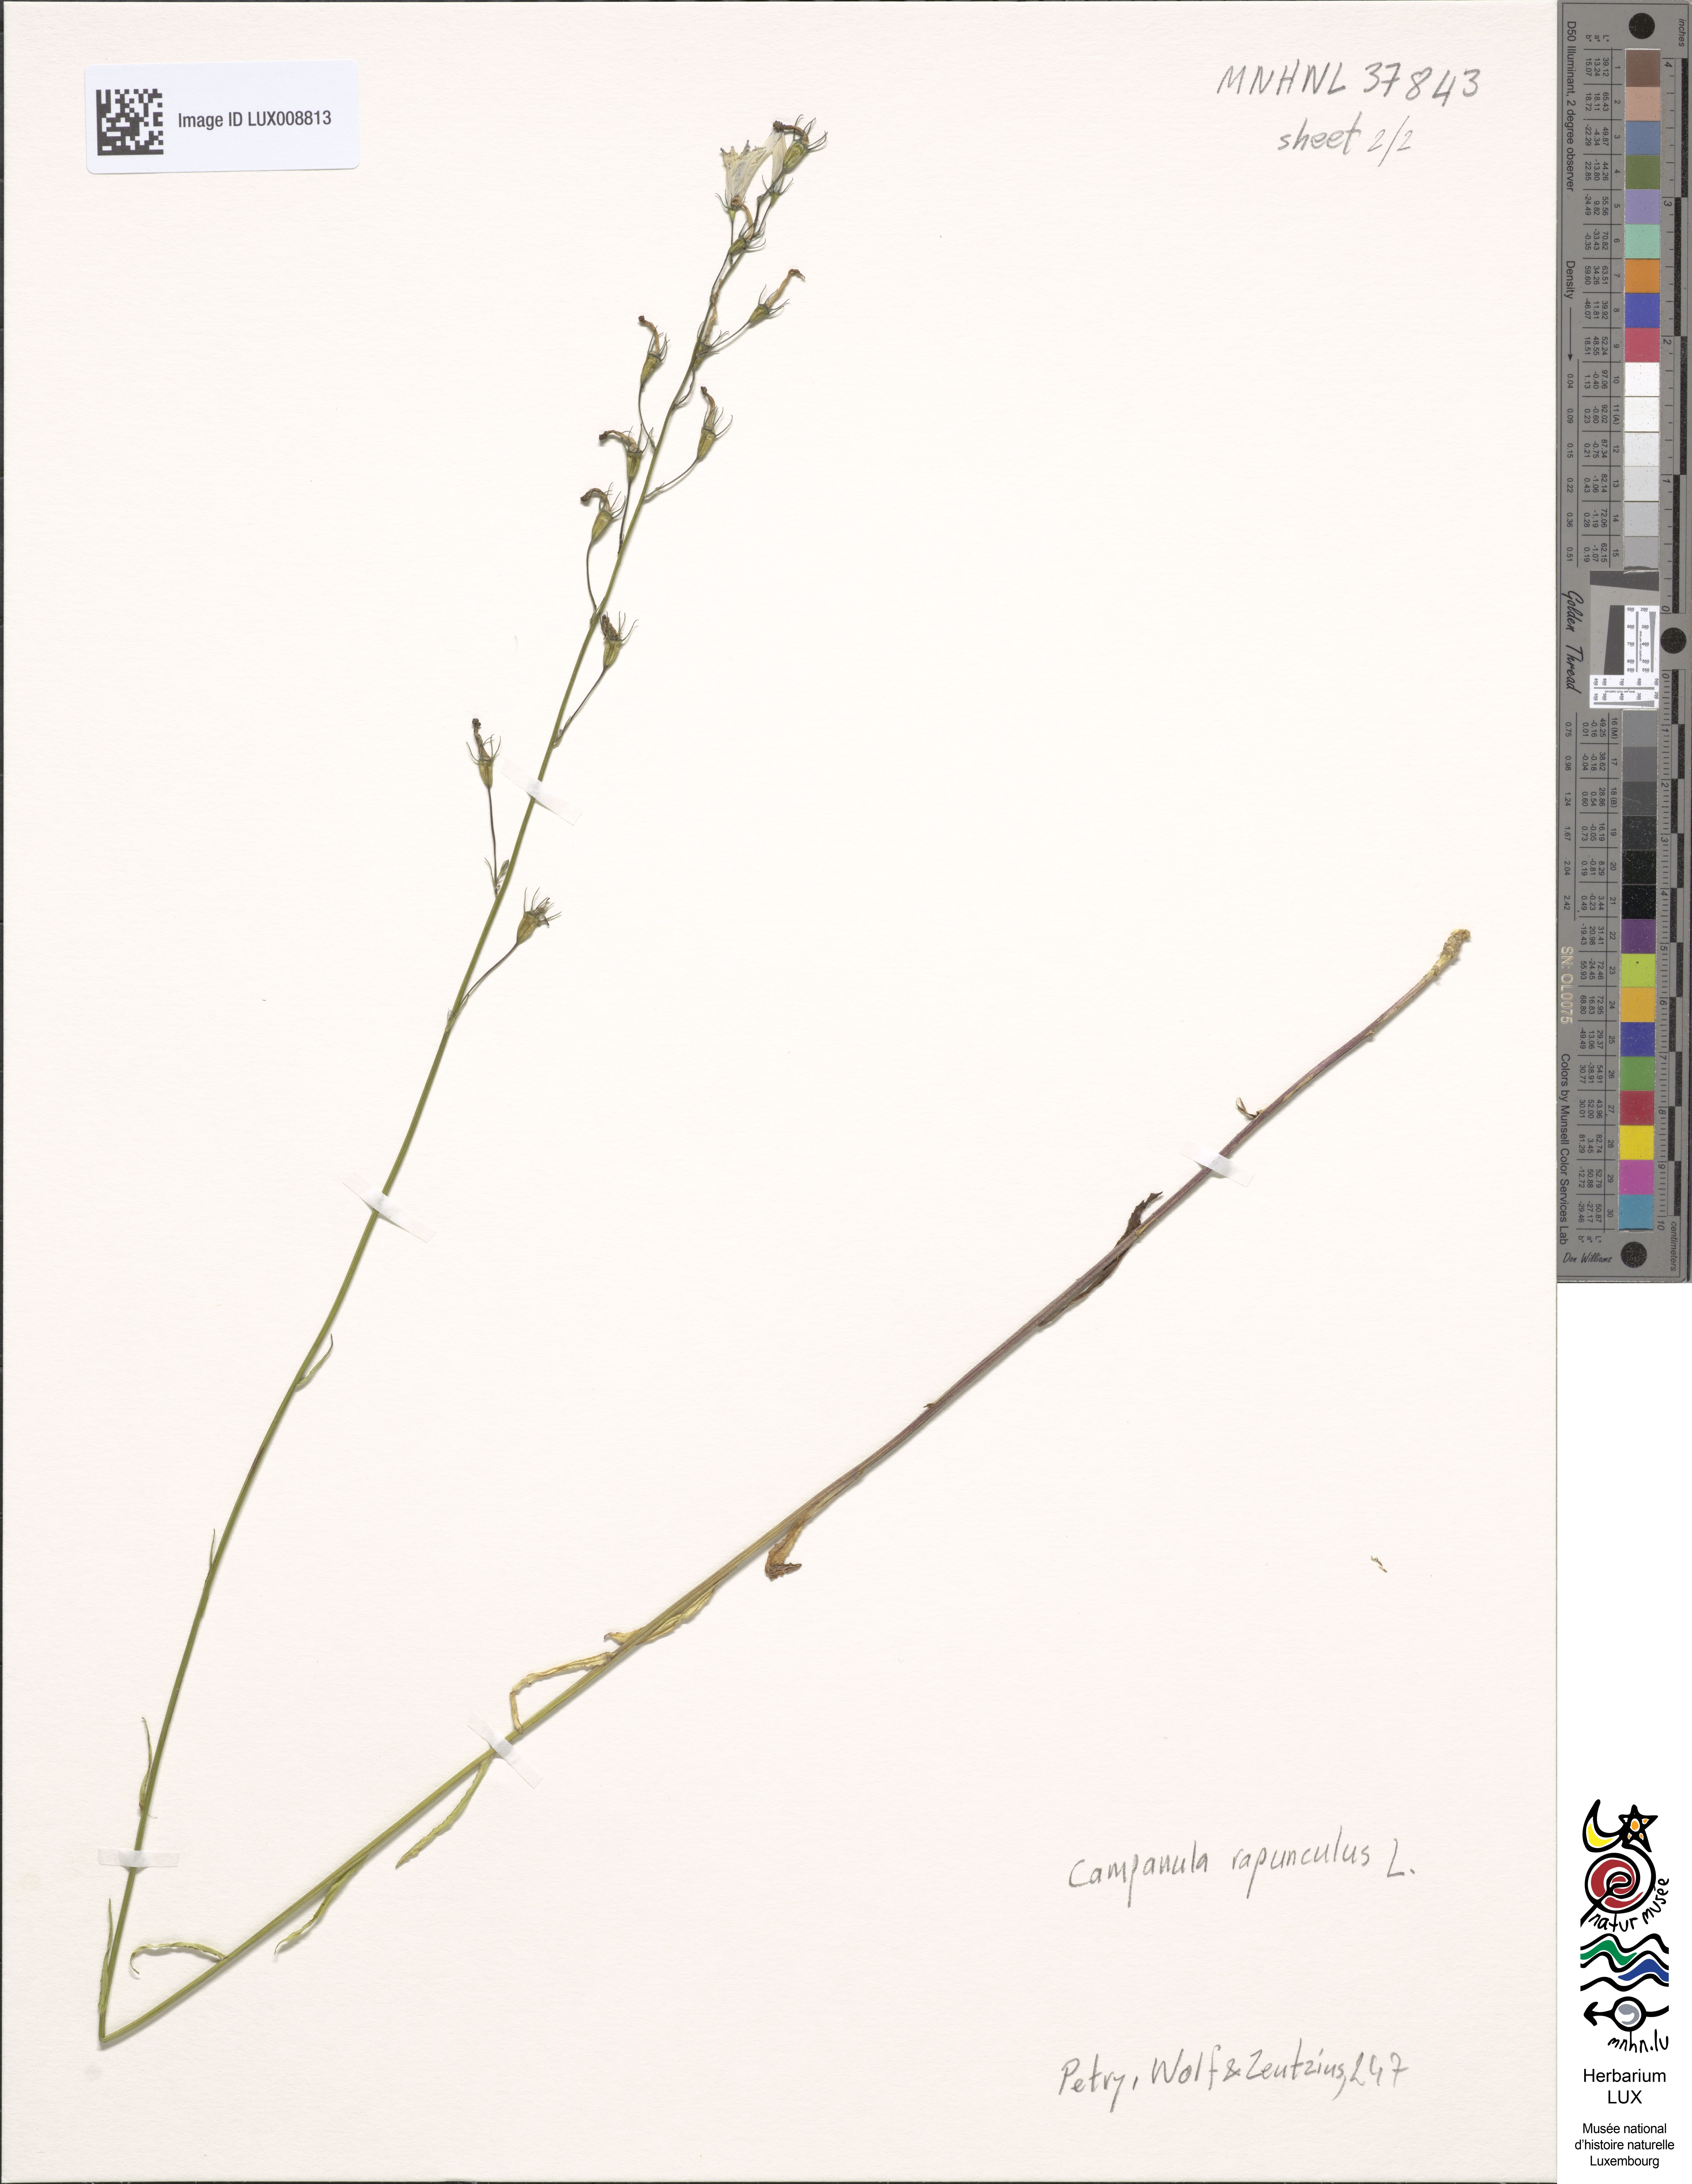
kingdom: Plantae
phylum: Tracheophyta
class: Magnoliopsida
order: Asterales
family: Campanulaceae
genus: Campanula
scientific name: Campanula rapunculus
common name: Rampion bellflower
